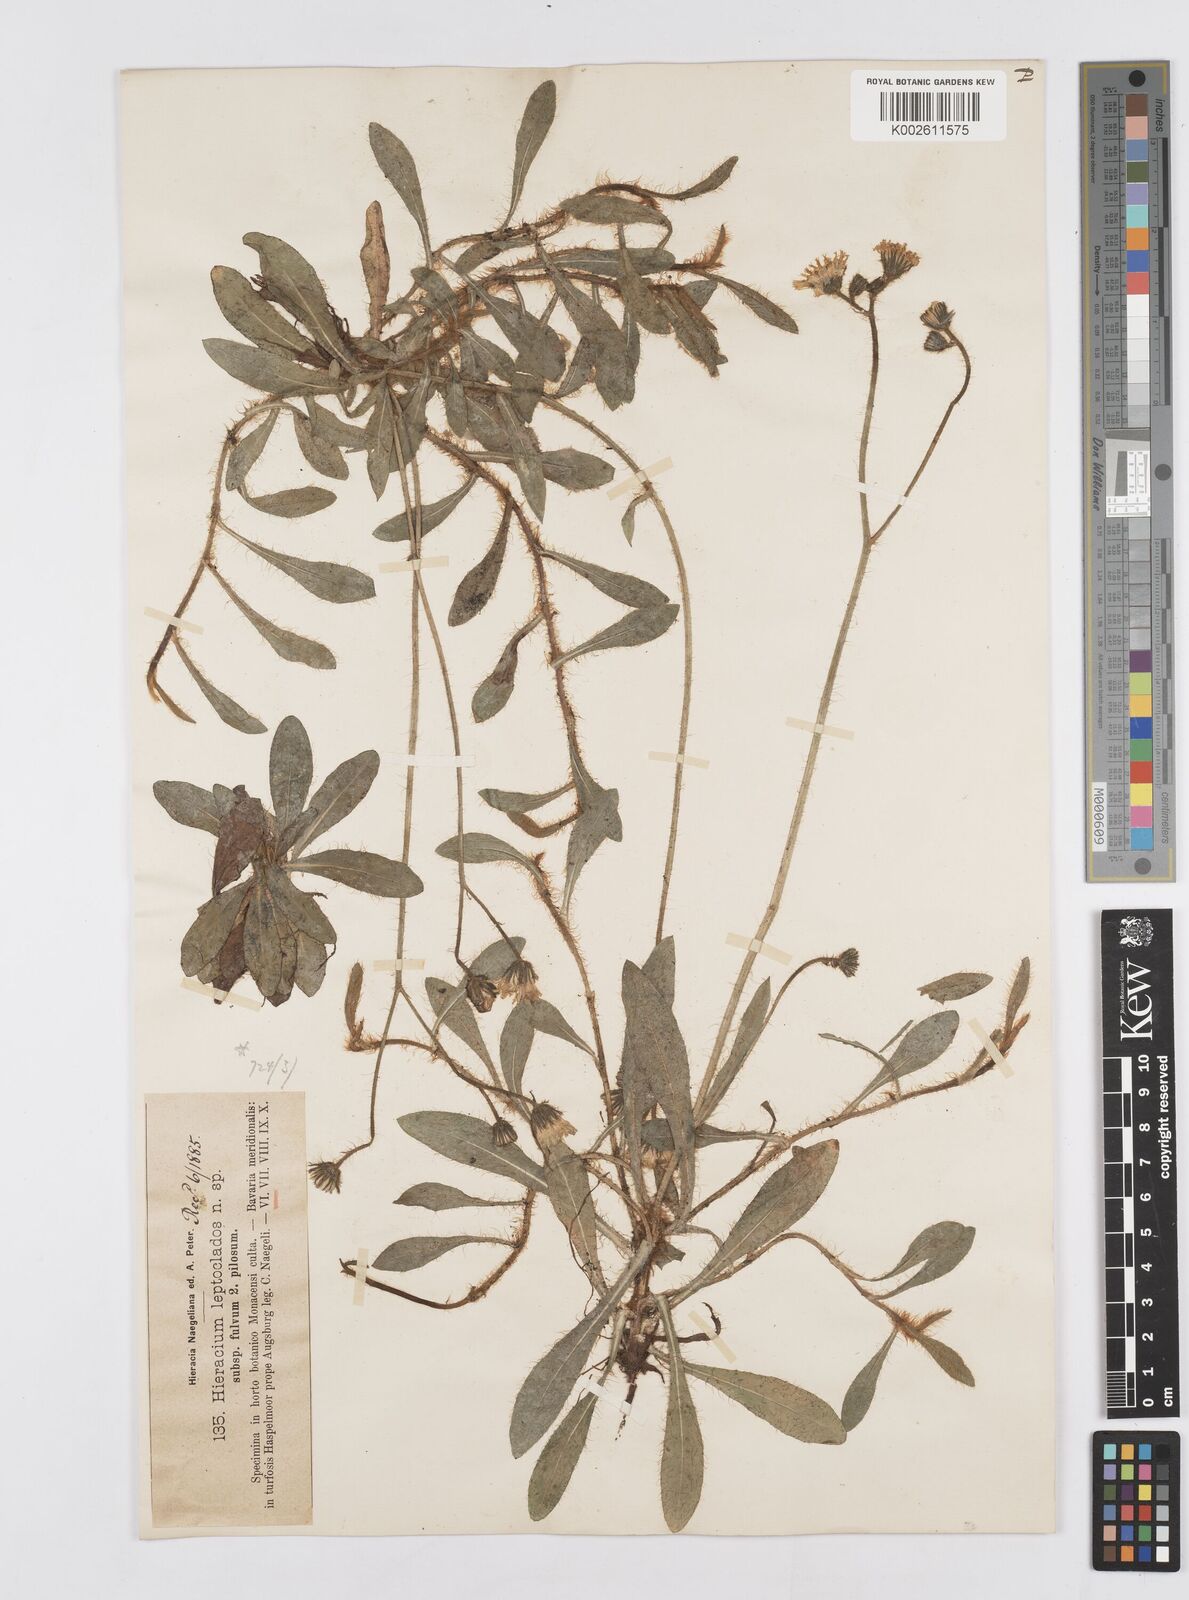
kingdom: Plantae
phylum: Tracheophyta
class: Magnoliopsida
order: Asterales
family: Asteraceae
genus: Pilosella
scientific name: Pilosella leptoclados
